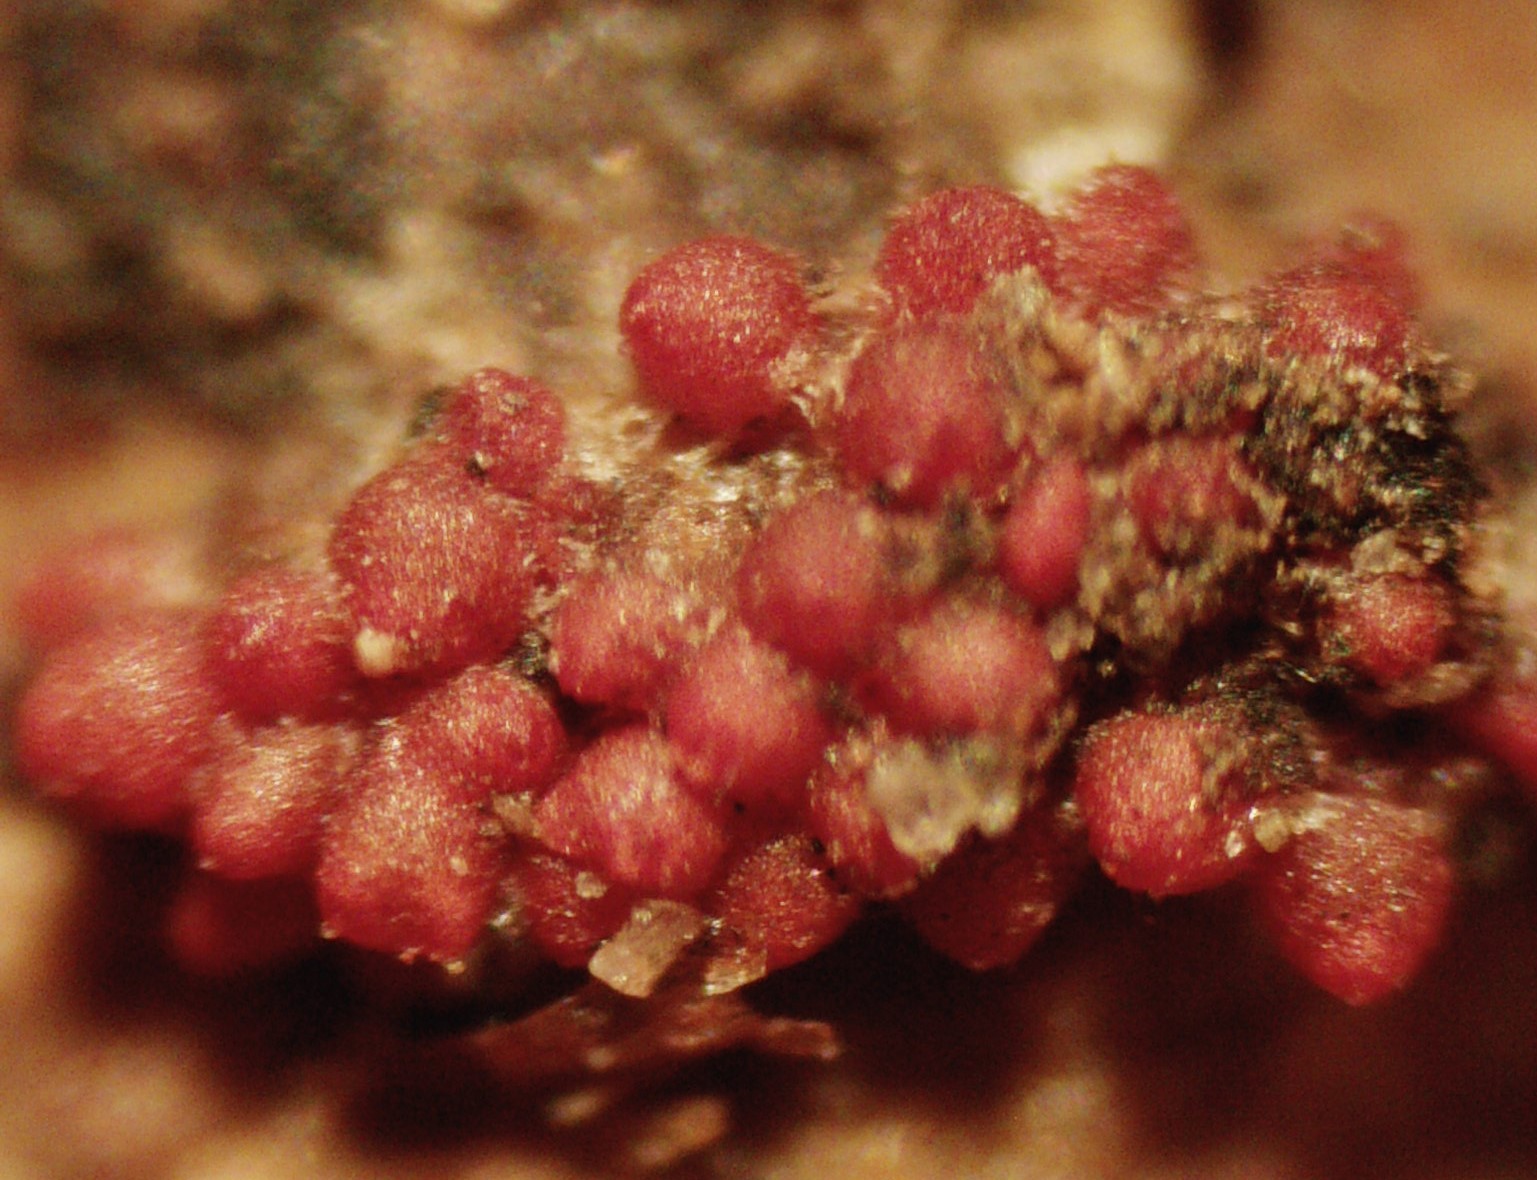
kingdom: Fungi
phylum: Ascomycota
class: Sordariomycetes
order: Hypocreales
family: Nectriaceae
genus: Nectria
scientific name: Nectria cinnabarina
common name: almindelig cinnobersvamp
